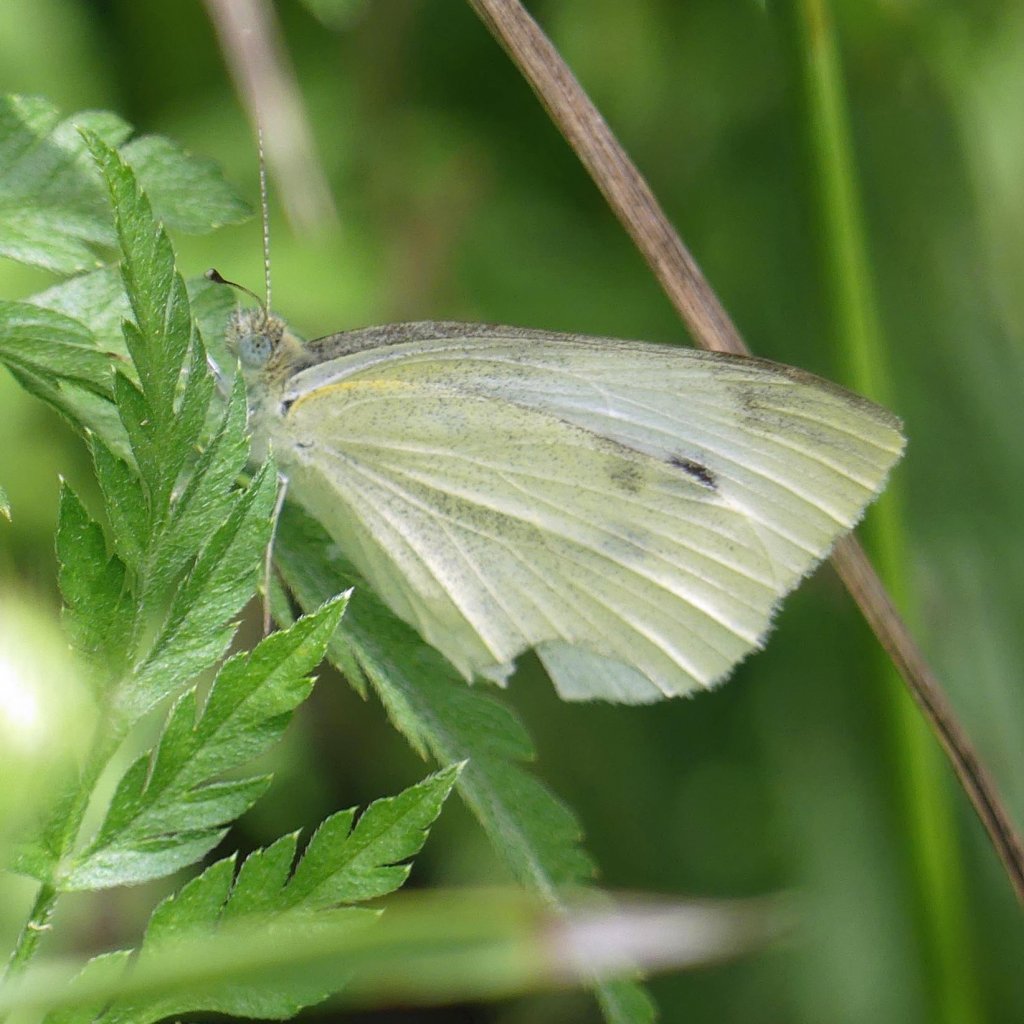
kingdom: Animalia
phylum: Arthropoda
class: Insecta
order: Lepidoptera
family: Pieridae
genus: Pieris
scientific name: Pieris rapae
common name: Cabbage White
